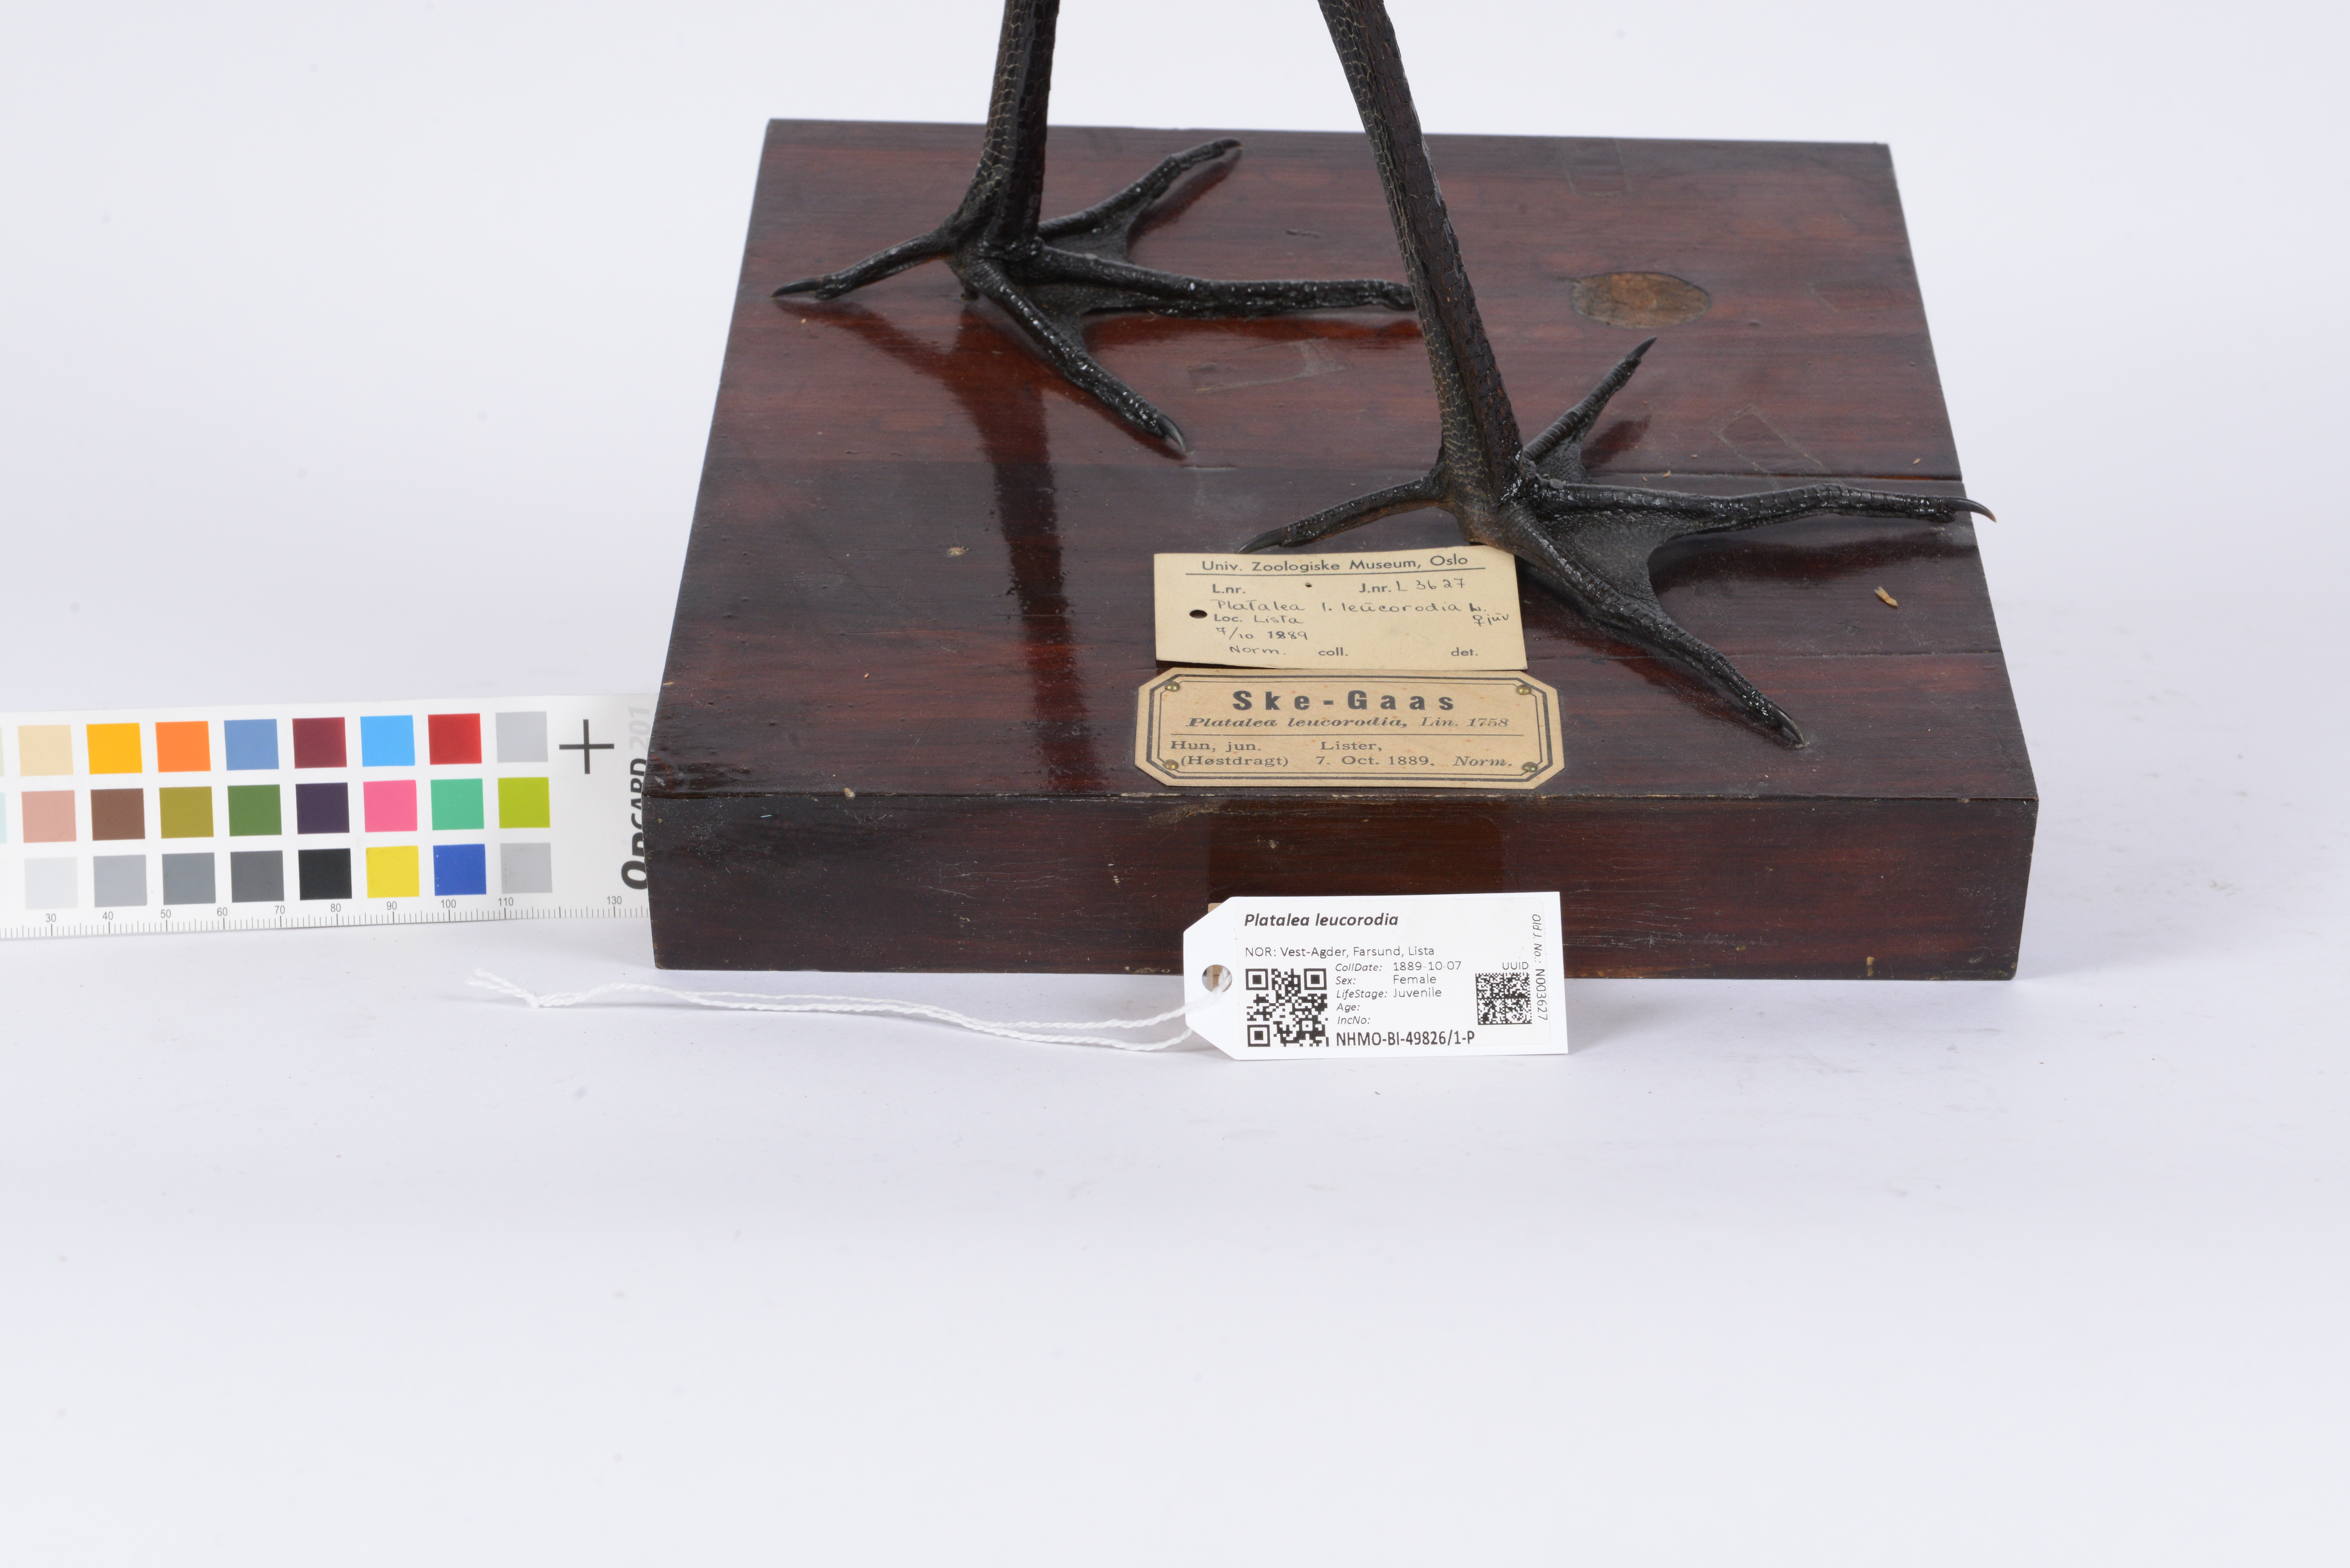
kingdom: Animalia
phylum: Chordata
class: Aves
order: Pelecaniformes
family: Threskiornithidae
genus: Platalea
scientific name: Platalea leucorodia
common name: Eurasian spoonbill
